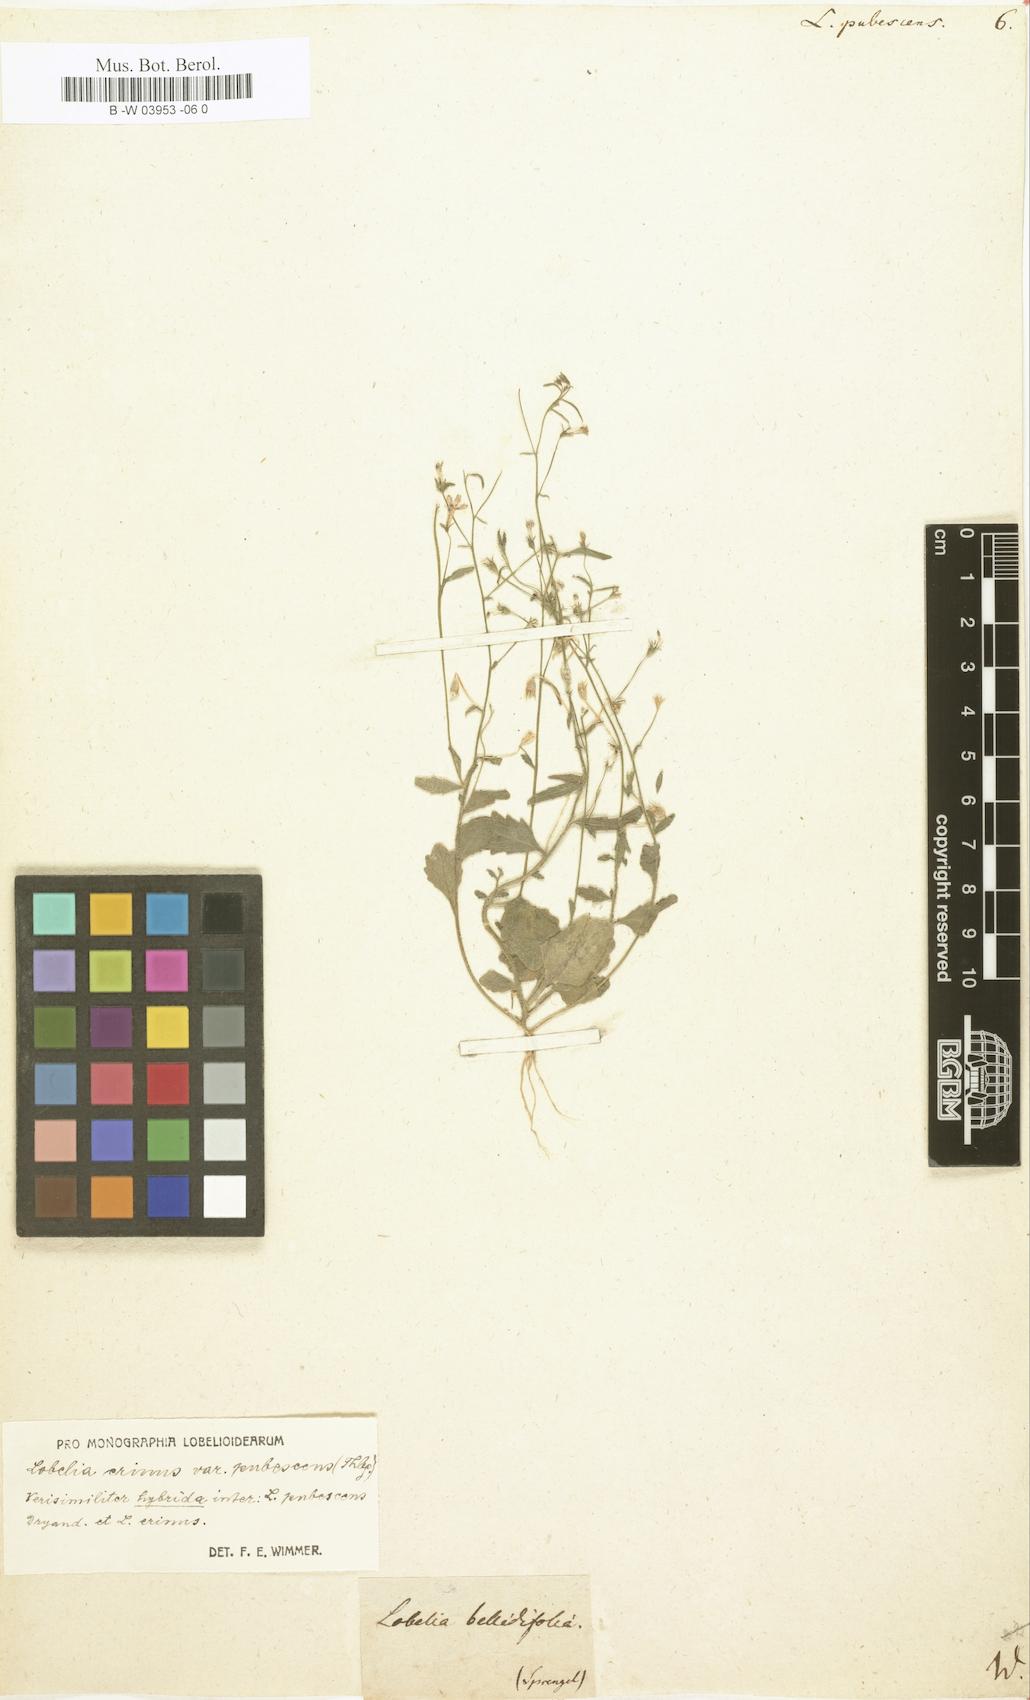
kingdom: Plantae
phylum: Tracheophyta
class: Magnoliopsida
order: Asterales
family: Campanulaceae
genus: Lobelia
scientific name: Lobelia pubescens
